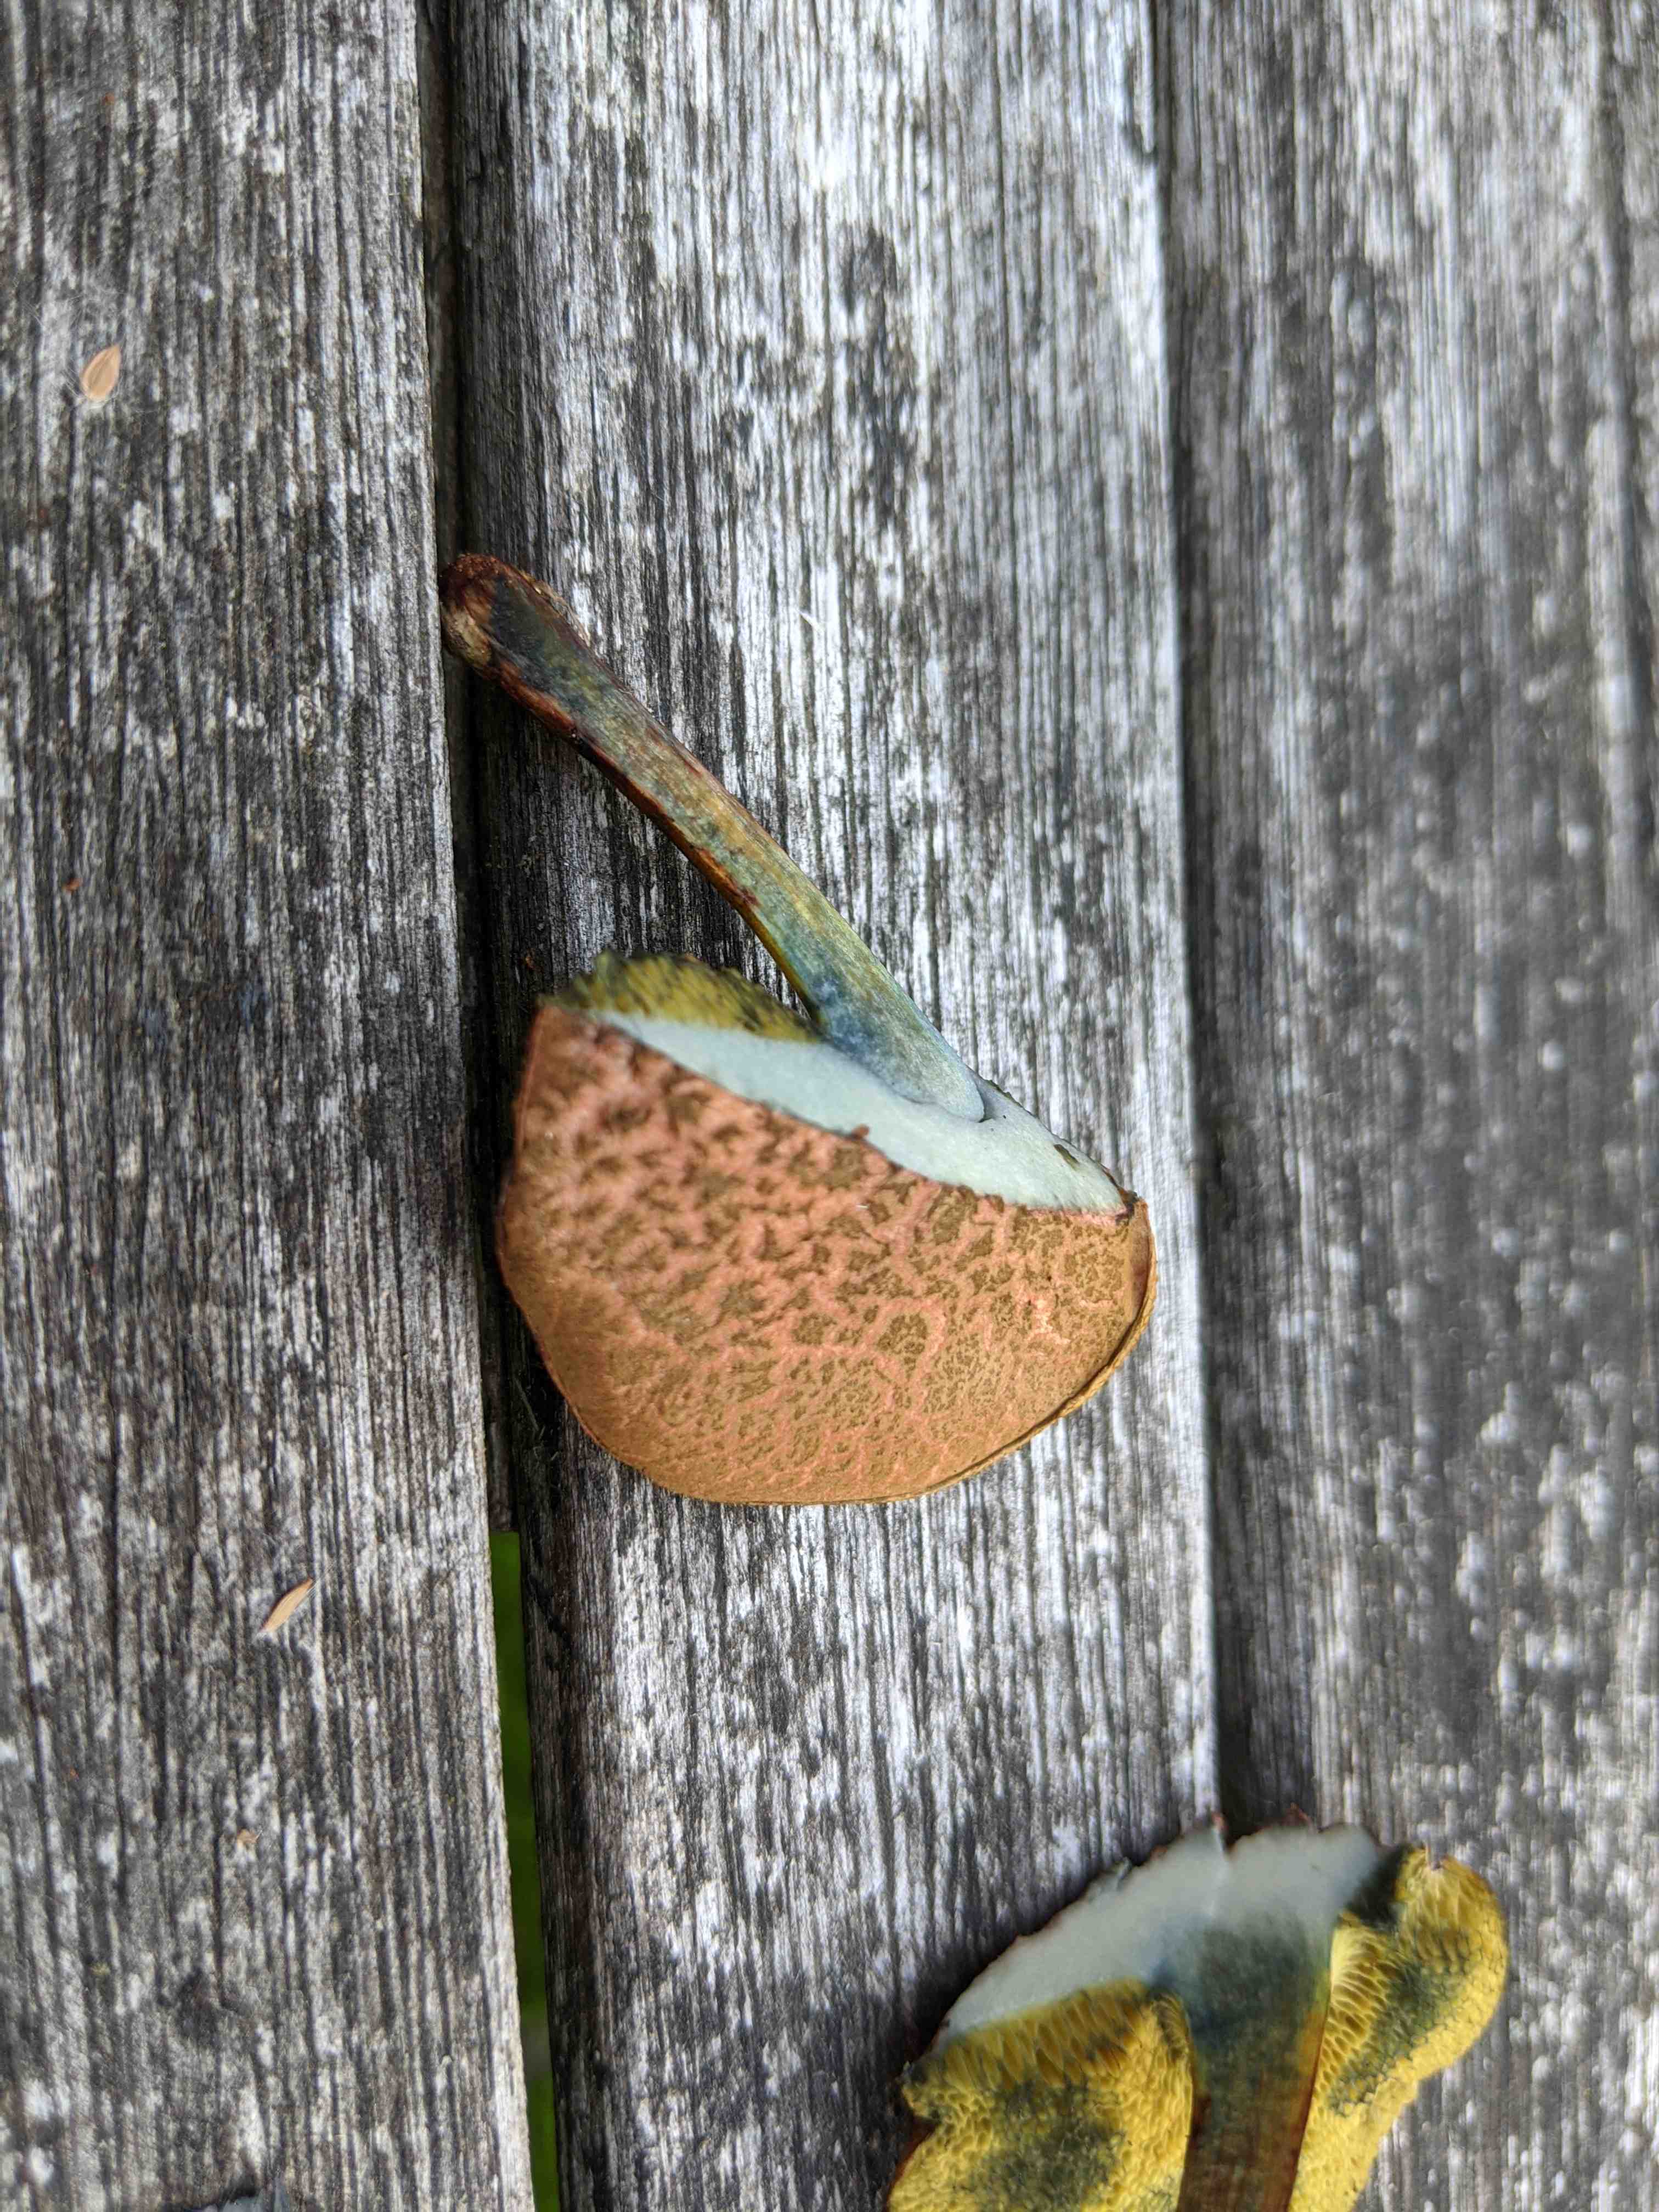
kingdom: Fungi
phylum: Basidiomycota
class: Agaricomycetes
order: Boletales
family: Boletaceae
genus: Xerocomellus
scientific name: Xerocomellus cisalpinus
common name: finsprukken rørhat
